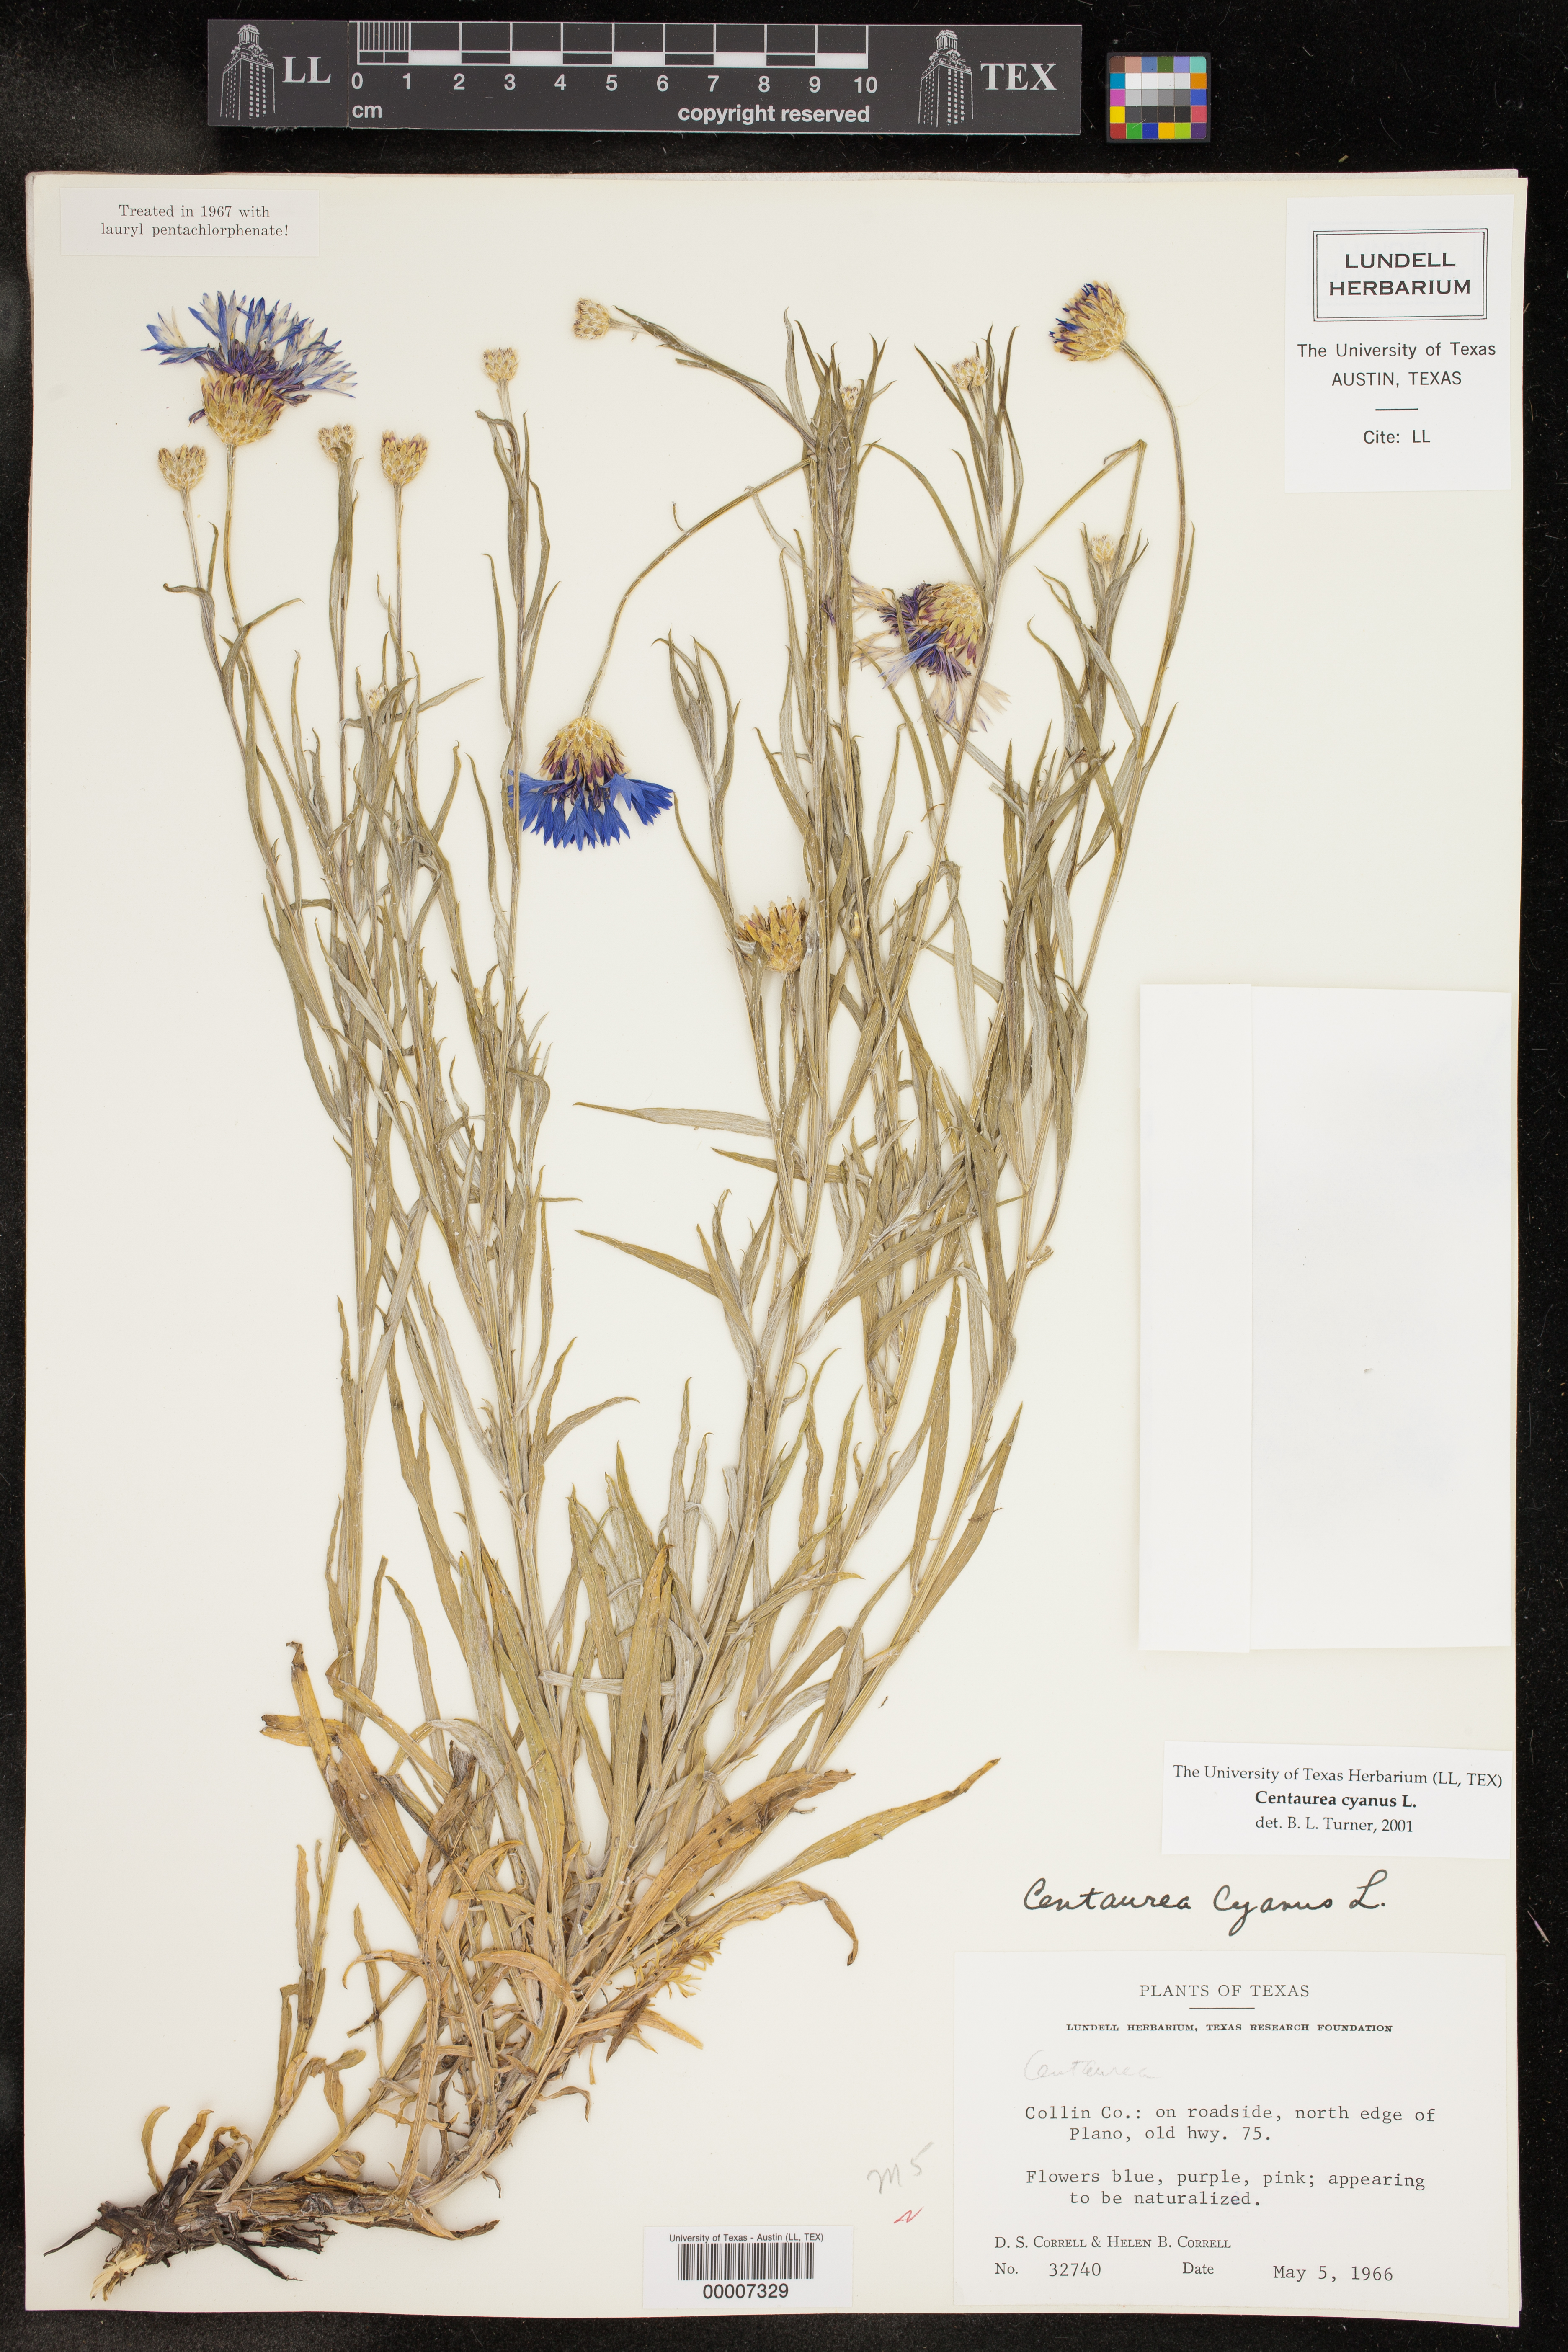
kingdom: Plantae
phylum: Tracheophyta
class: Magnoliopsida
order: Asterales
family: Asteraceae
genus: Centaurea
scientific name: Centaurea cyanus
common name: Cornflower
